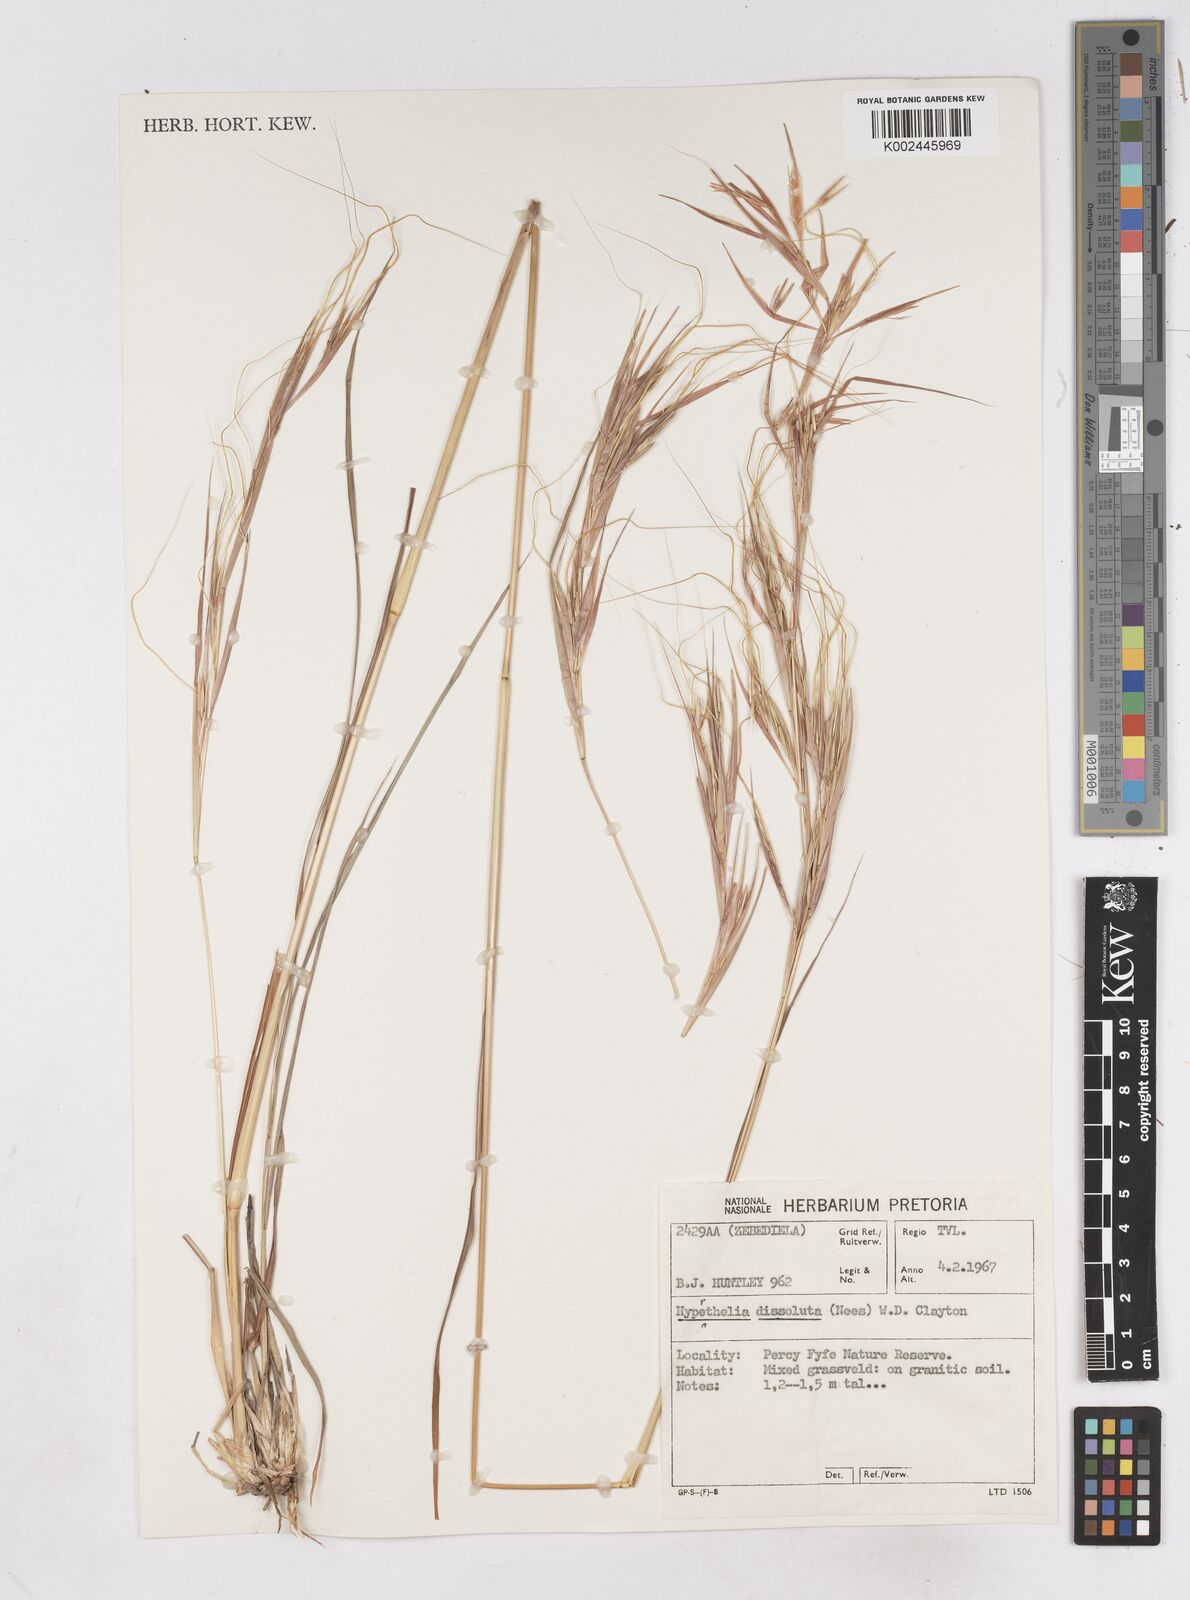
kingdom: Plantae
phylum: Tracheophyta
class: Liliopsida
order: Poales
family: Poaceae
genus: Hyperthelia
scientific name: Hyperthelia dissoluta
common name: Yellow thatching grass
